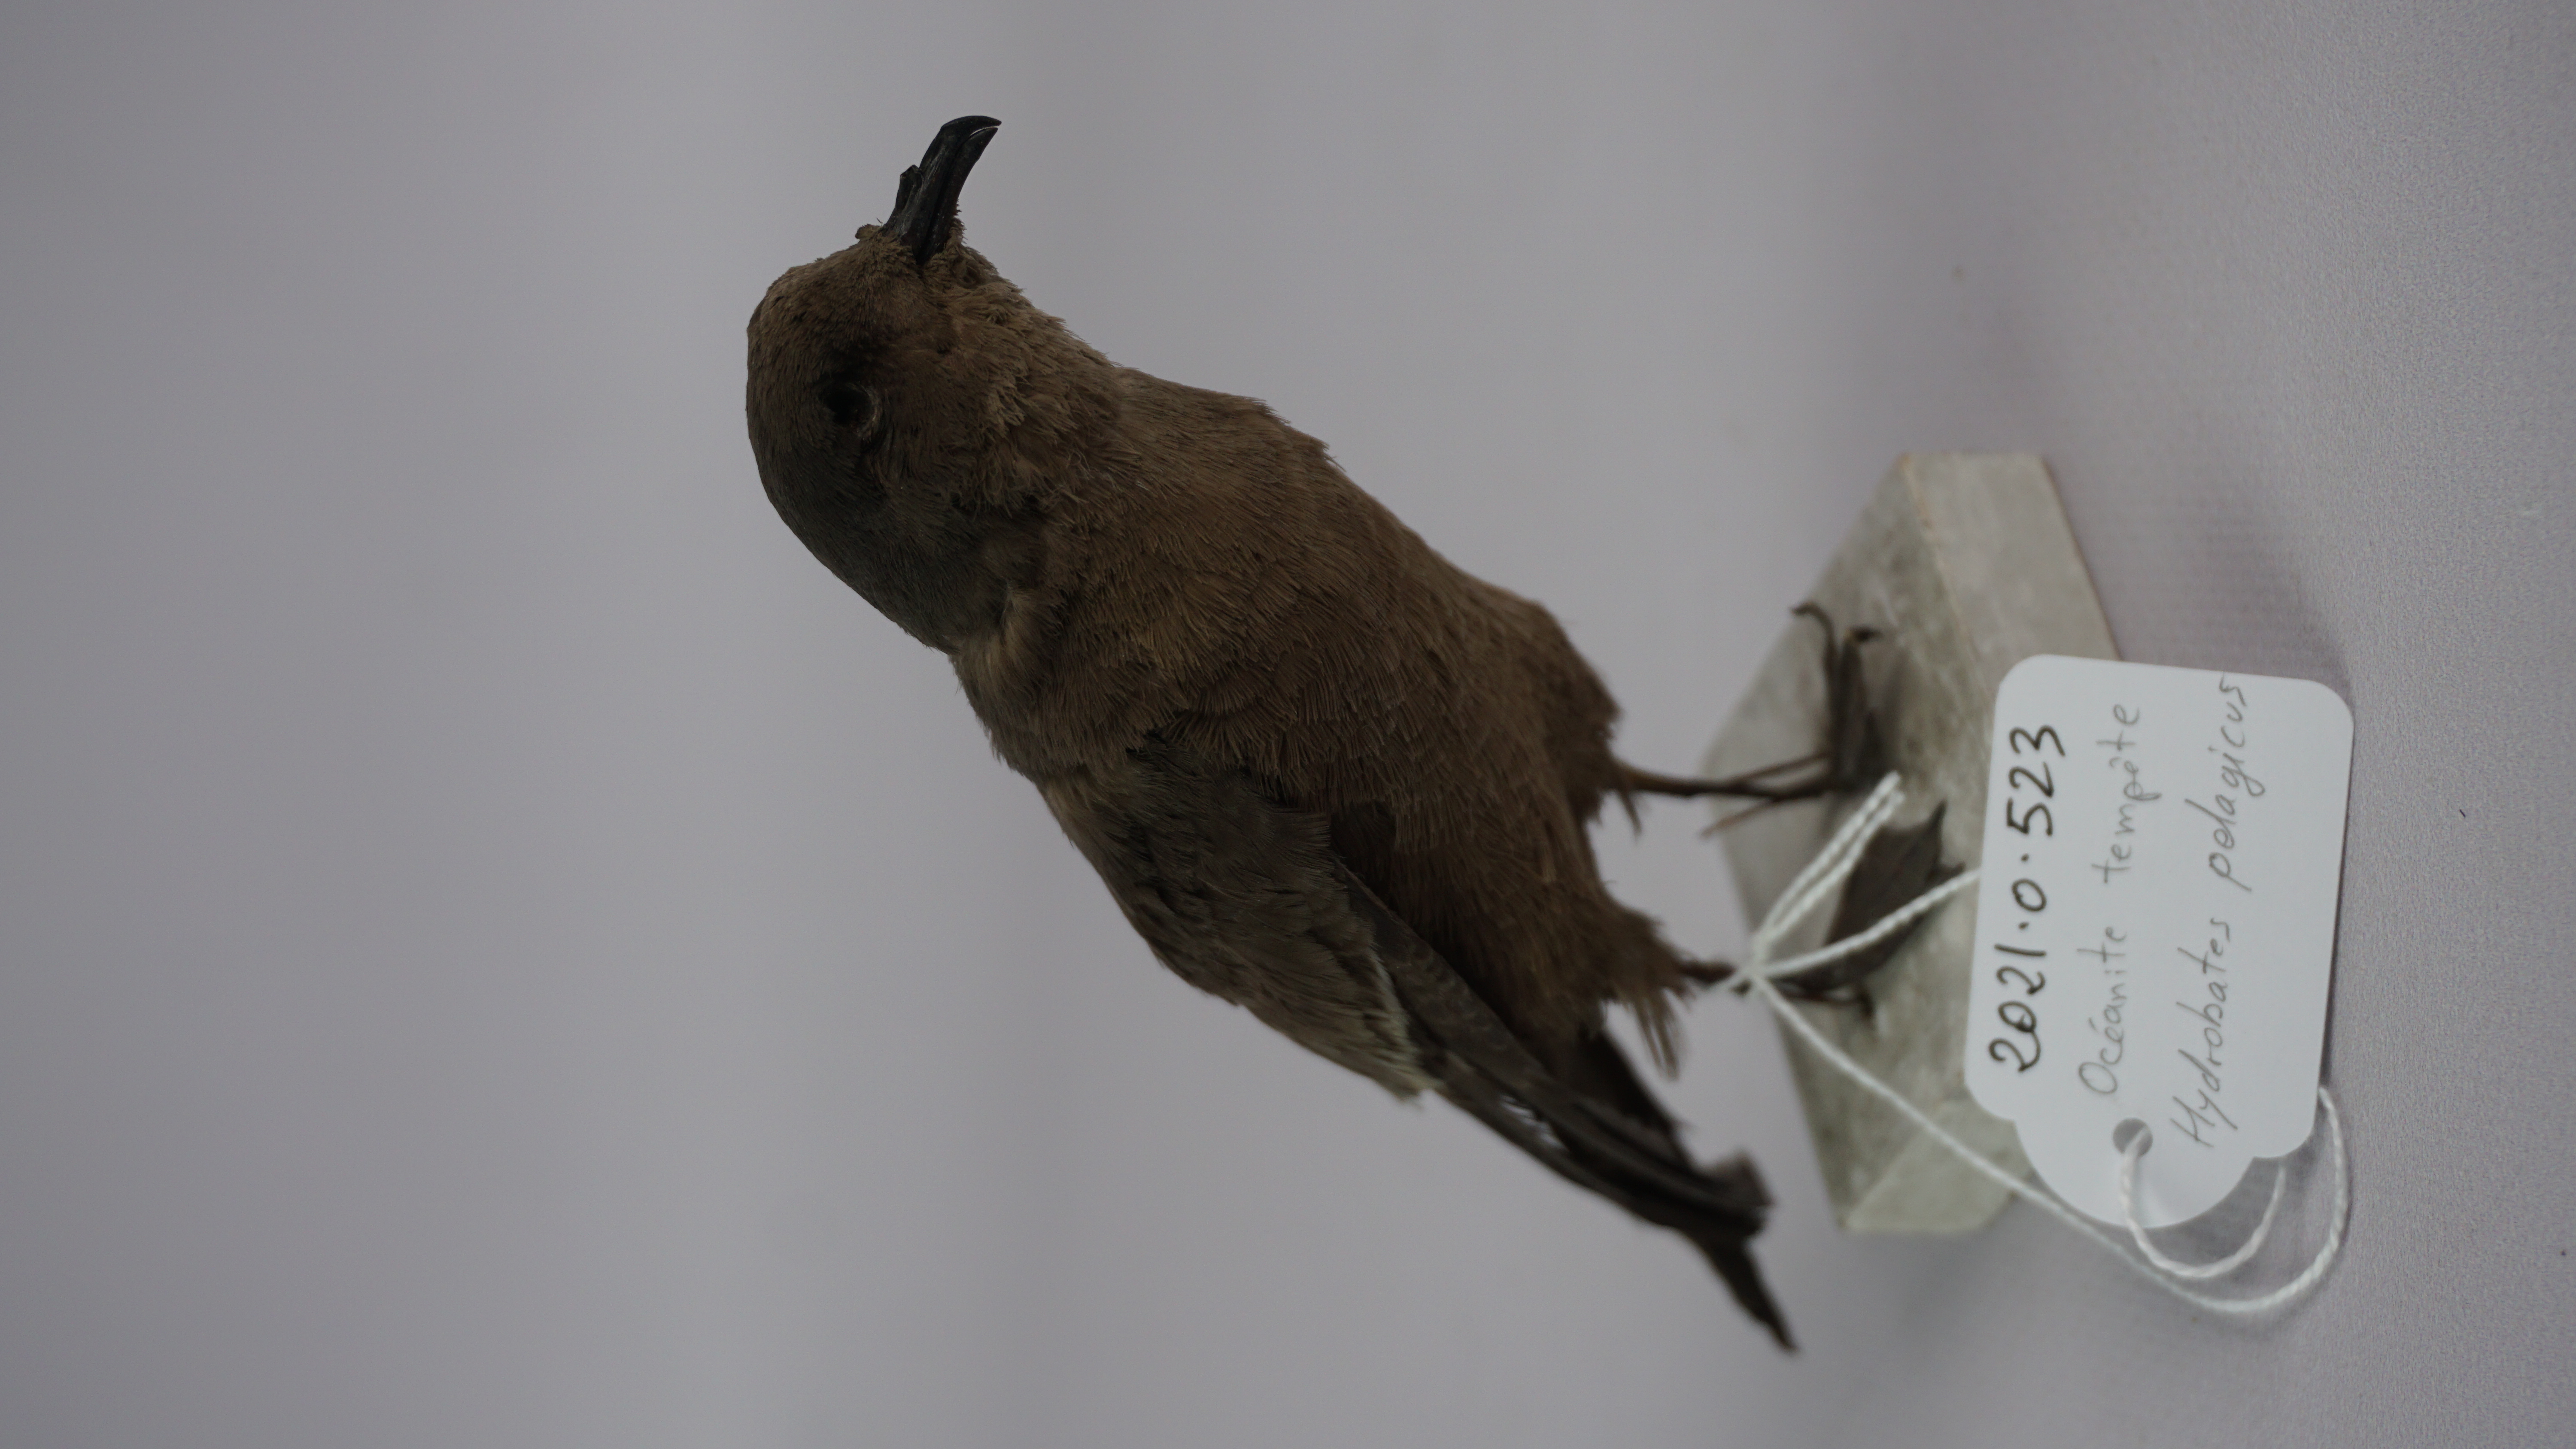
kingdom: Animalia
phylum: Chordata
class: Aves
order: Procellariiformes
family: Hydrobatidae
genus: Hydrobates
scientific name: Hydrobates pelagicus
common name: European storm-petrel
